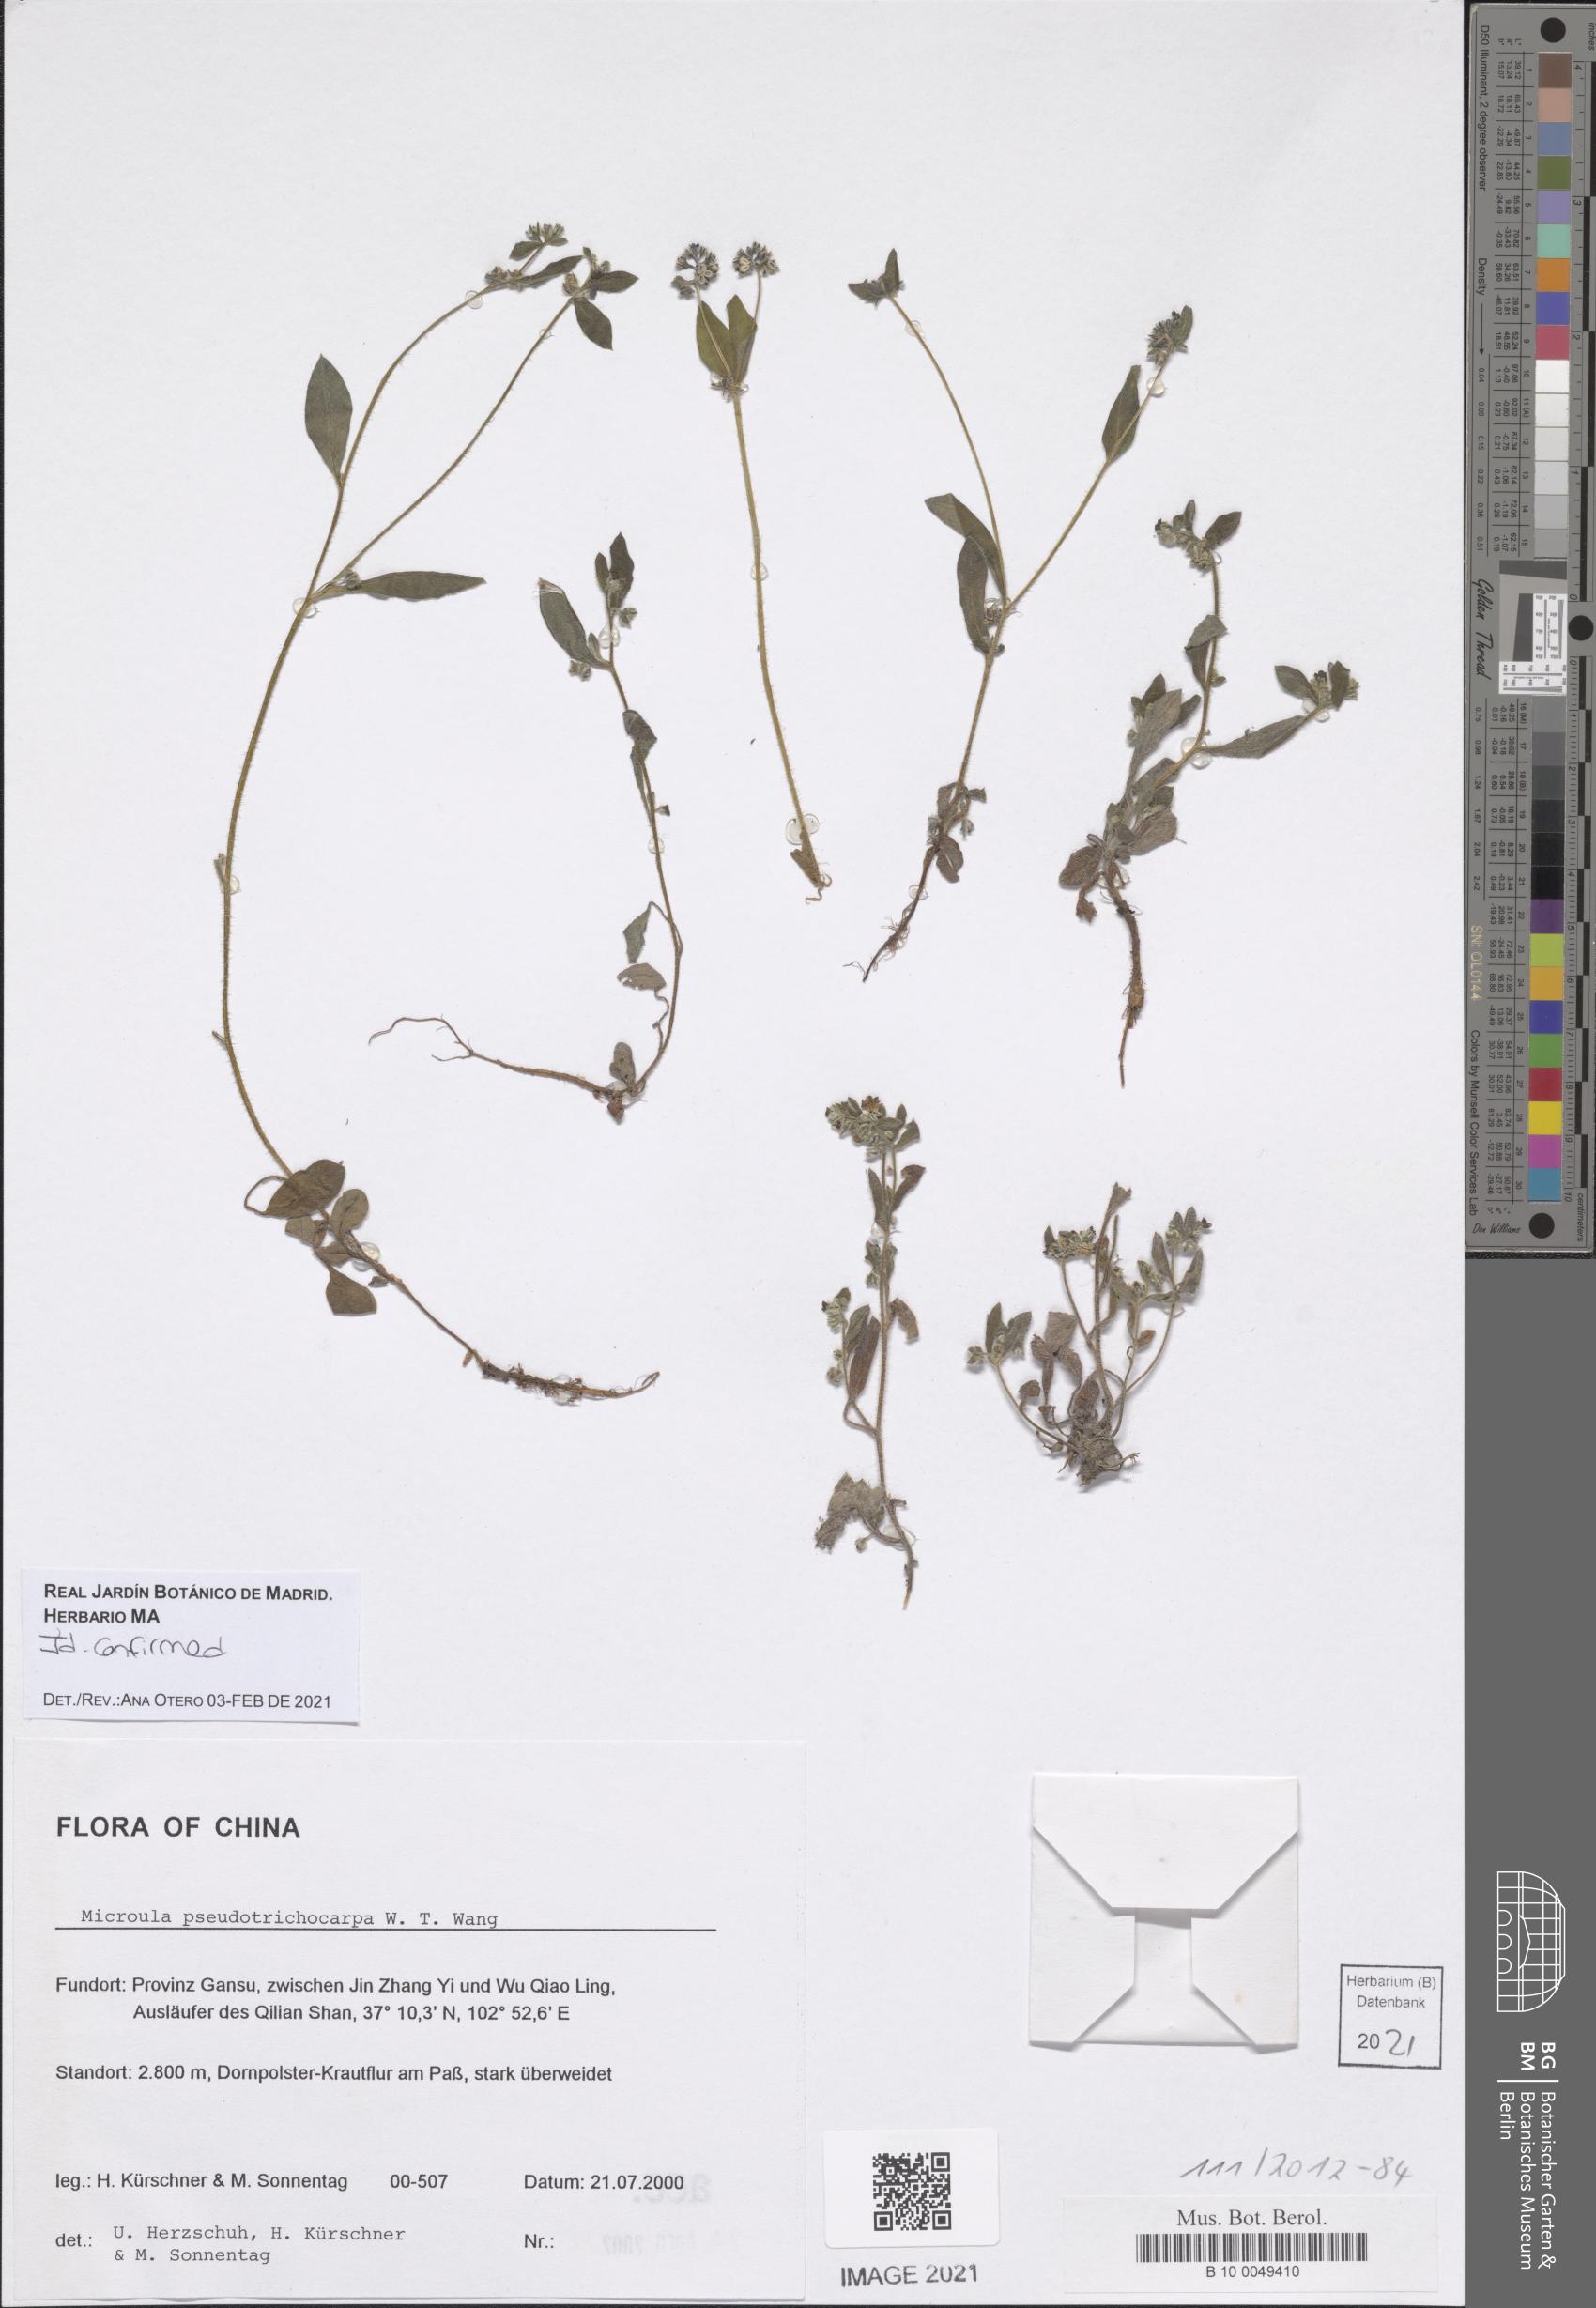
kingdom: Plantae
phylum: Tracheophyta
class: Magnoliopsida
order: Boraginales
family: Boraginaceae
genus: Microula
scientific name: Microula pseudotrichocarpa
